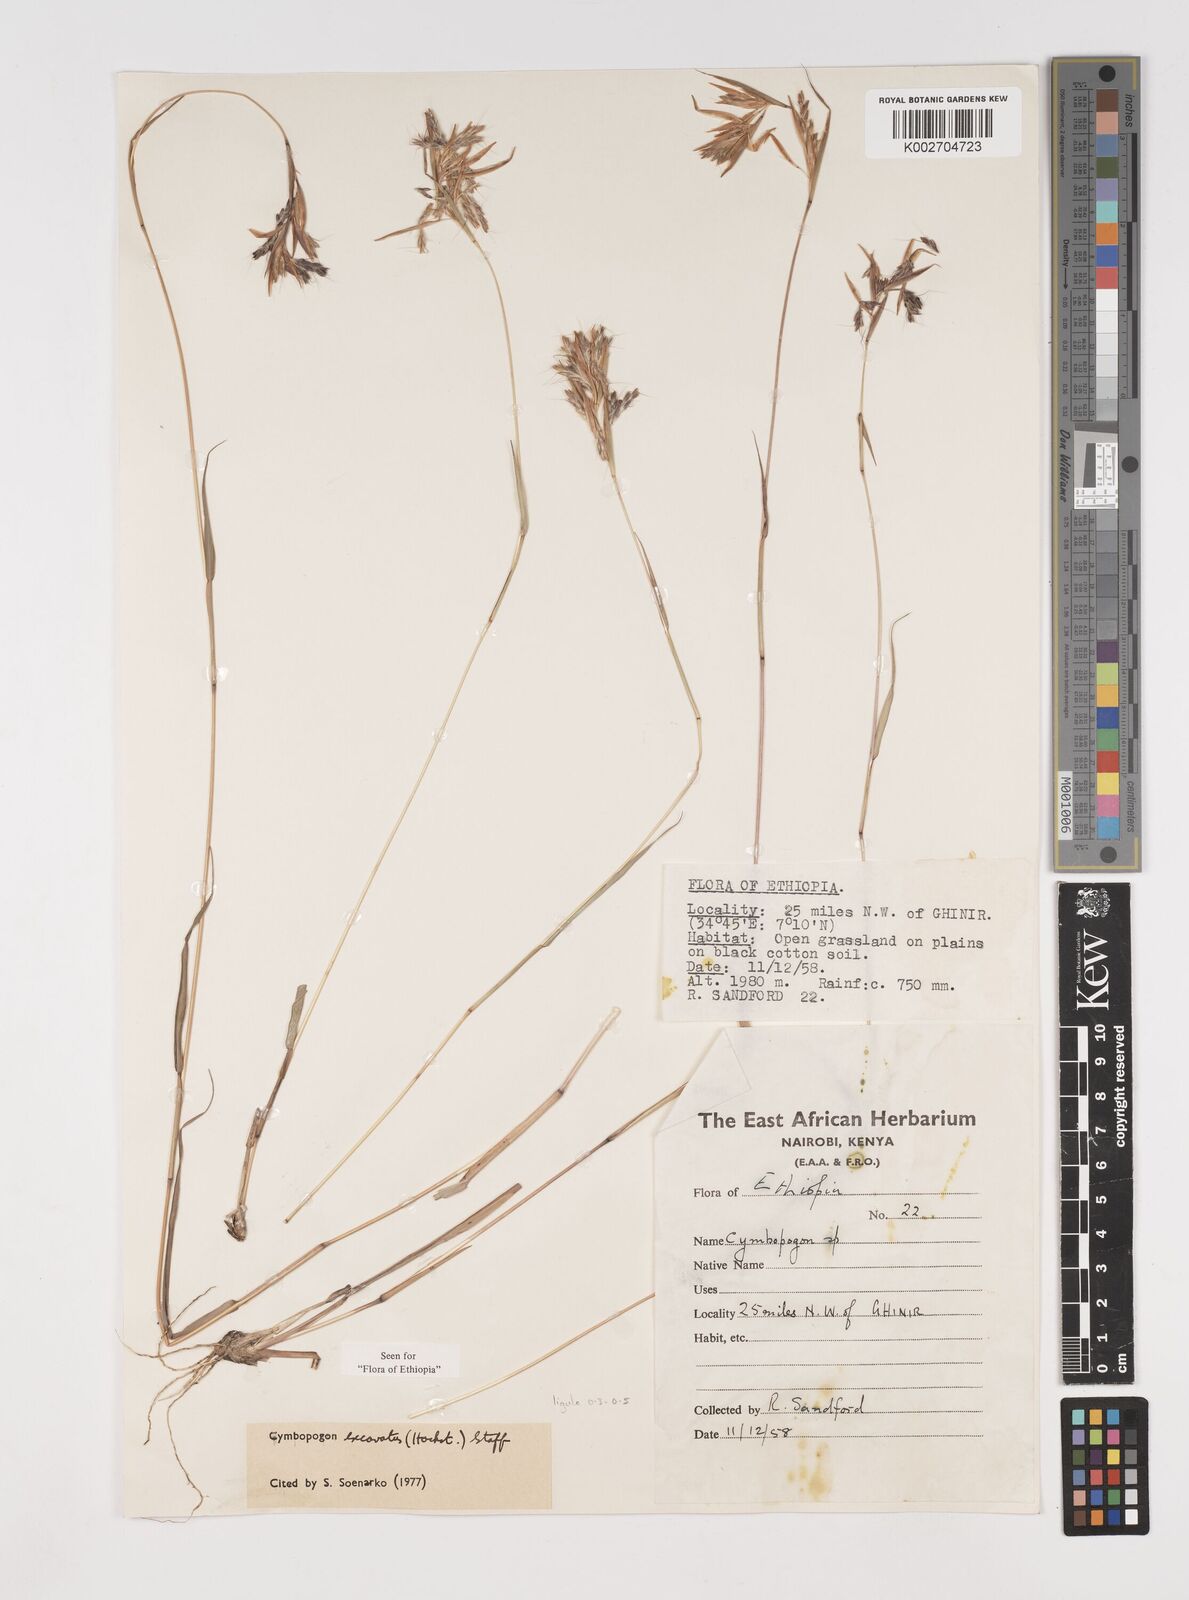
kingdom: Plantae
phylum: Tracheophyta
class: Liliopsida
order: Poales
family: Poaceae
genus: Cymbopogon
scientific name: Cymbopogon
